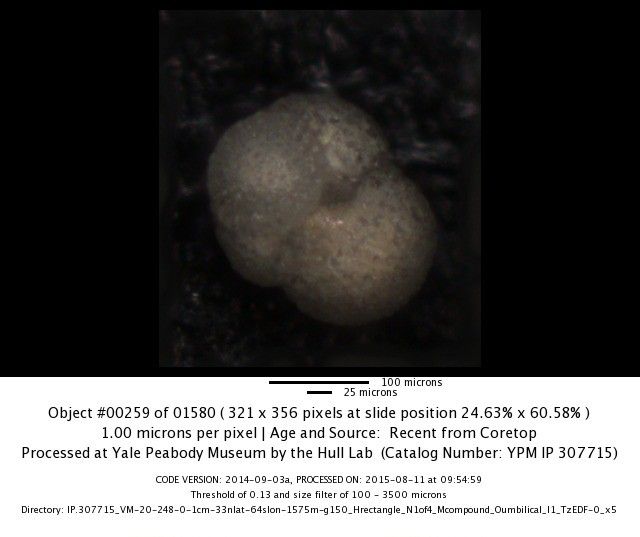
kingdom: Chromista
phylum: Foraminifera
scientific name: Foraminifera
